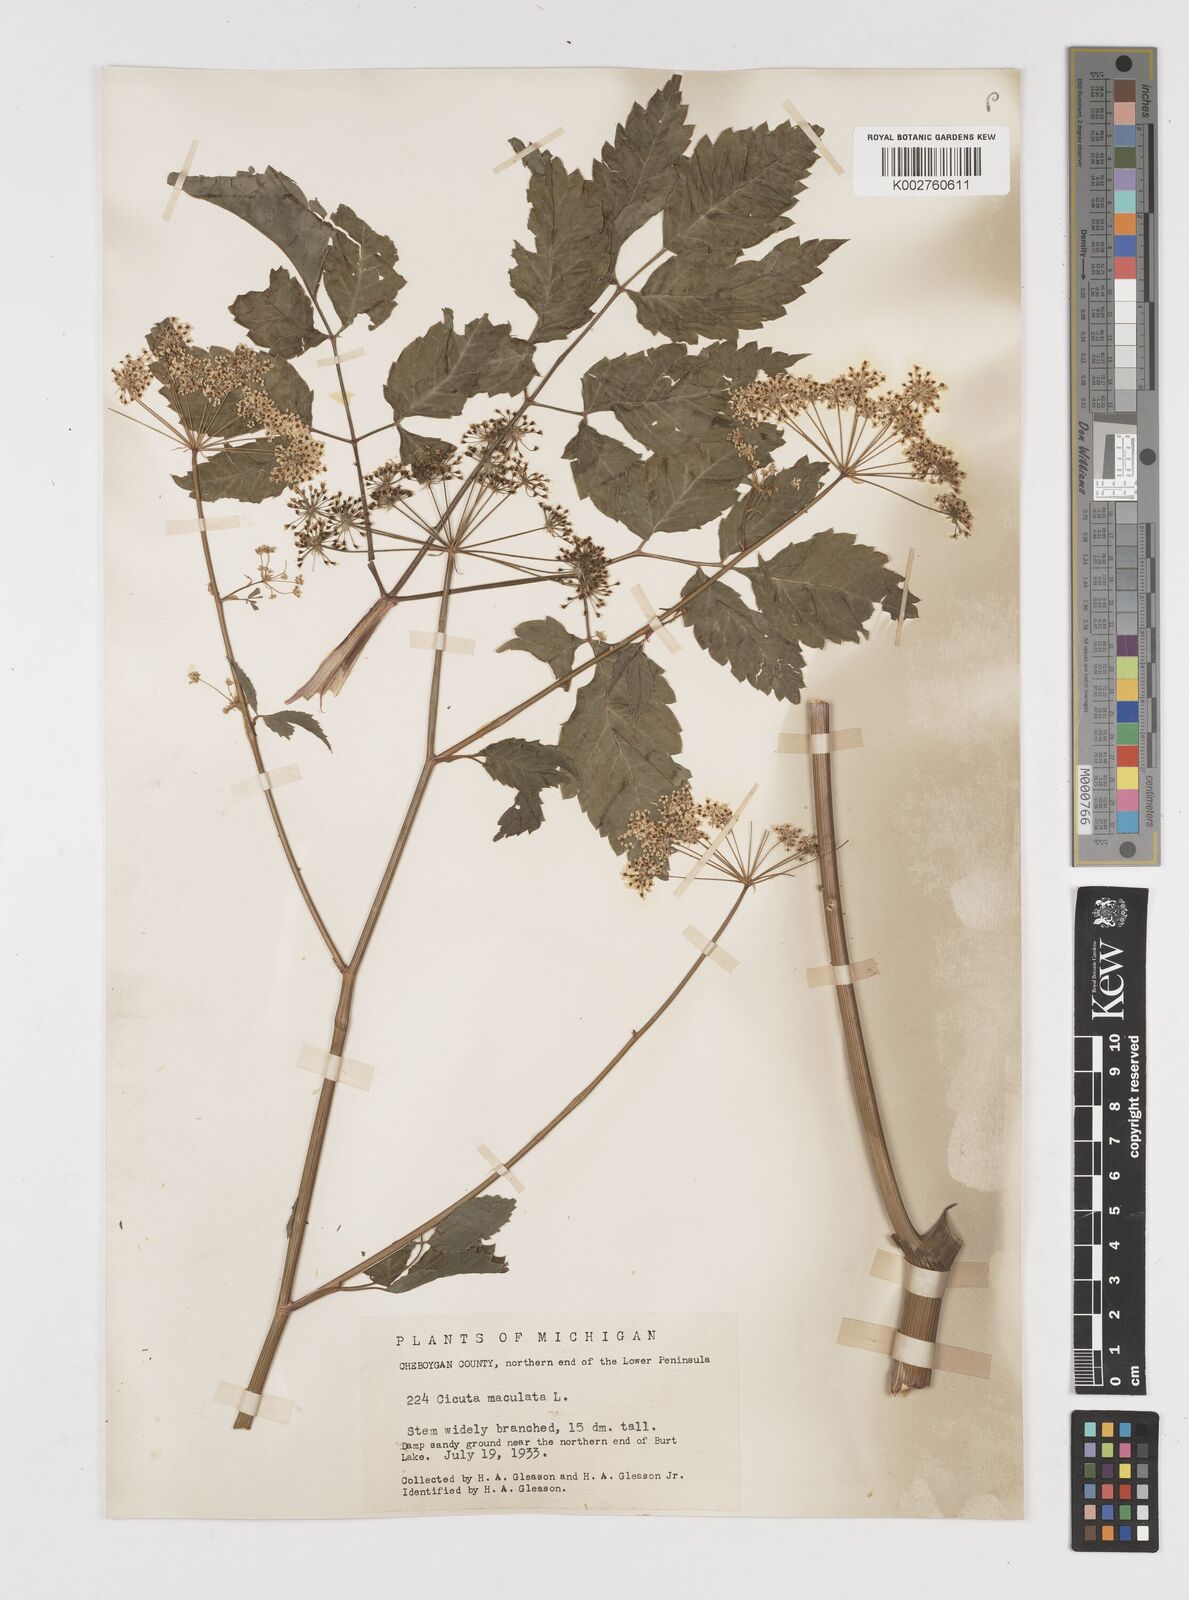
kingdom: Plantae
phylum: Tracheophyta
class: Magnoliopsida
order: Apiales
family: Apiaceae
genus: Cicuta
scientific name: Cicuta maculata
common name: Spotted cowbane
